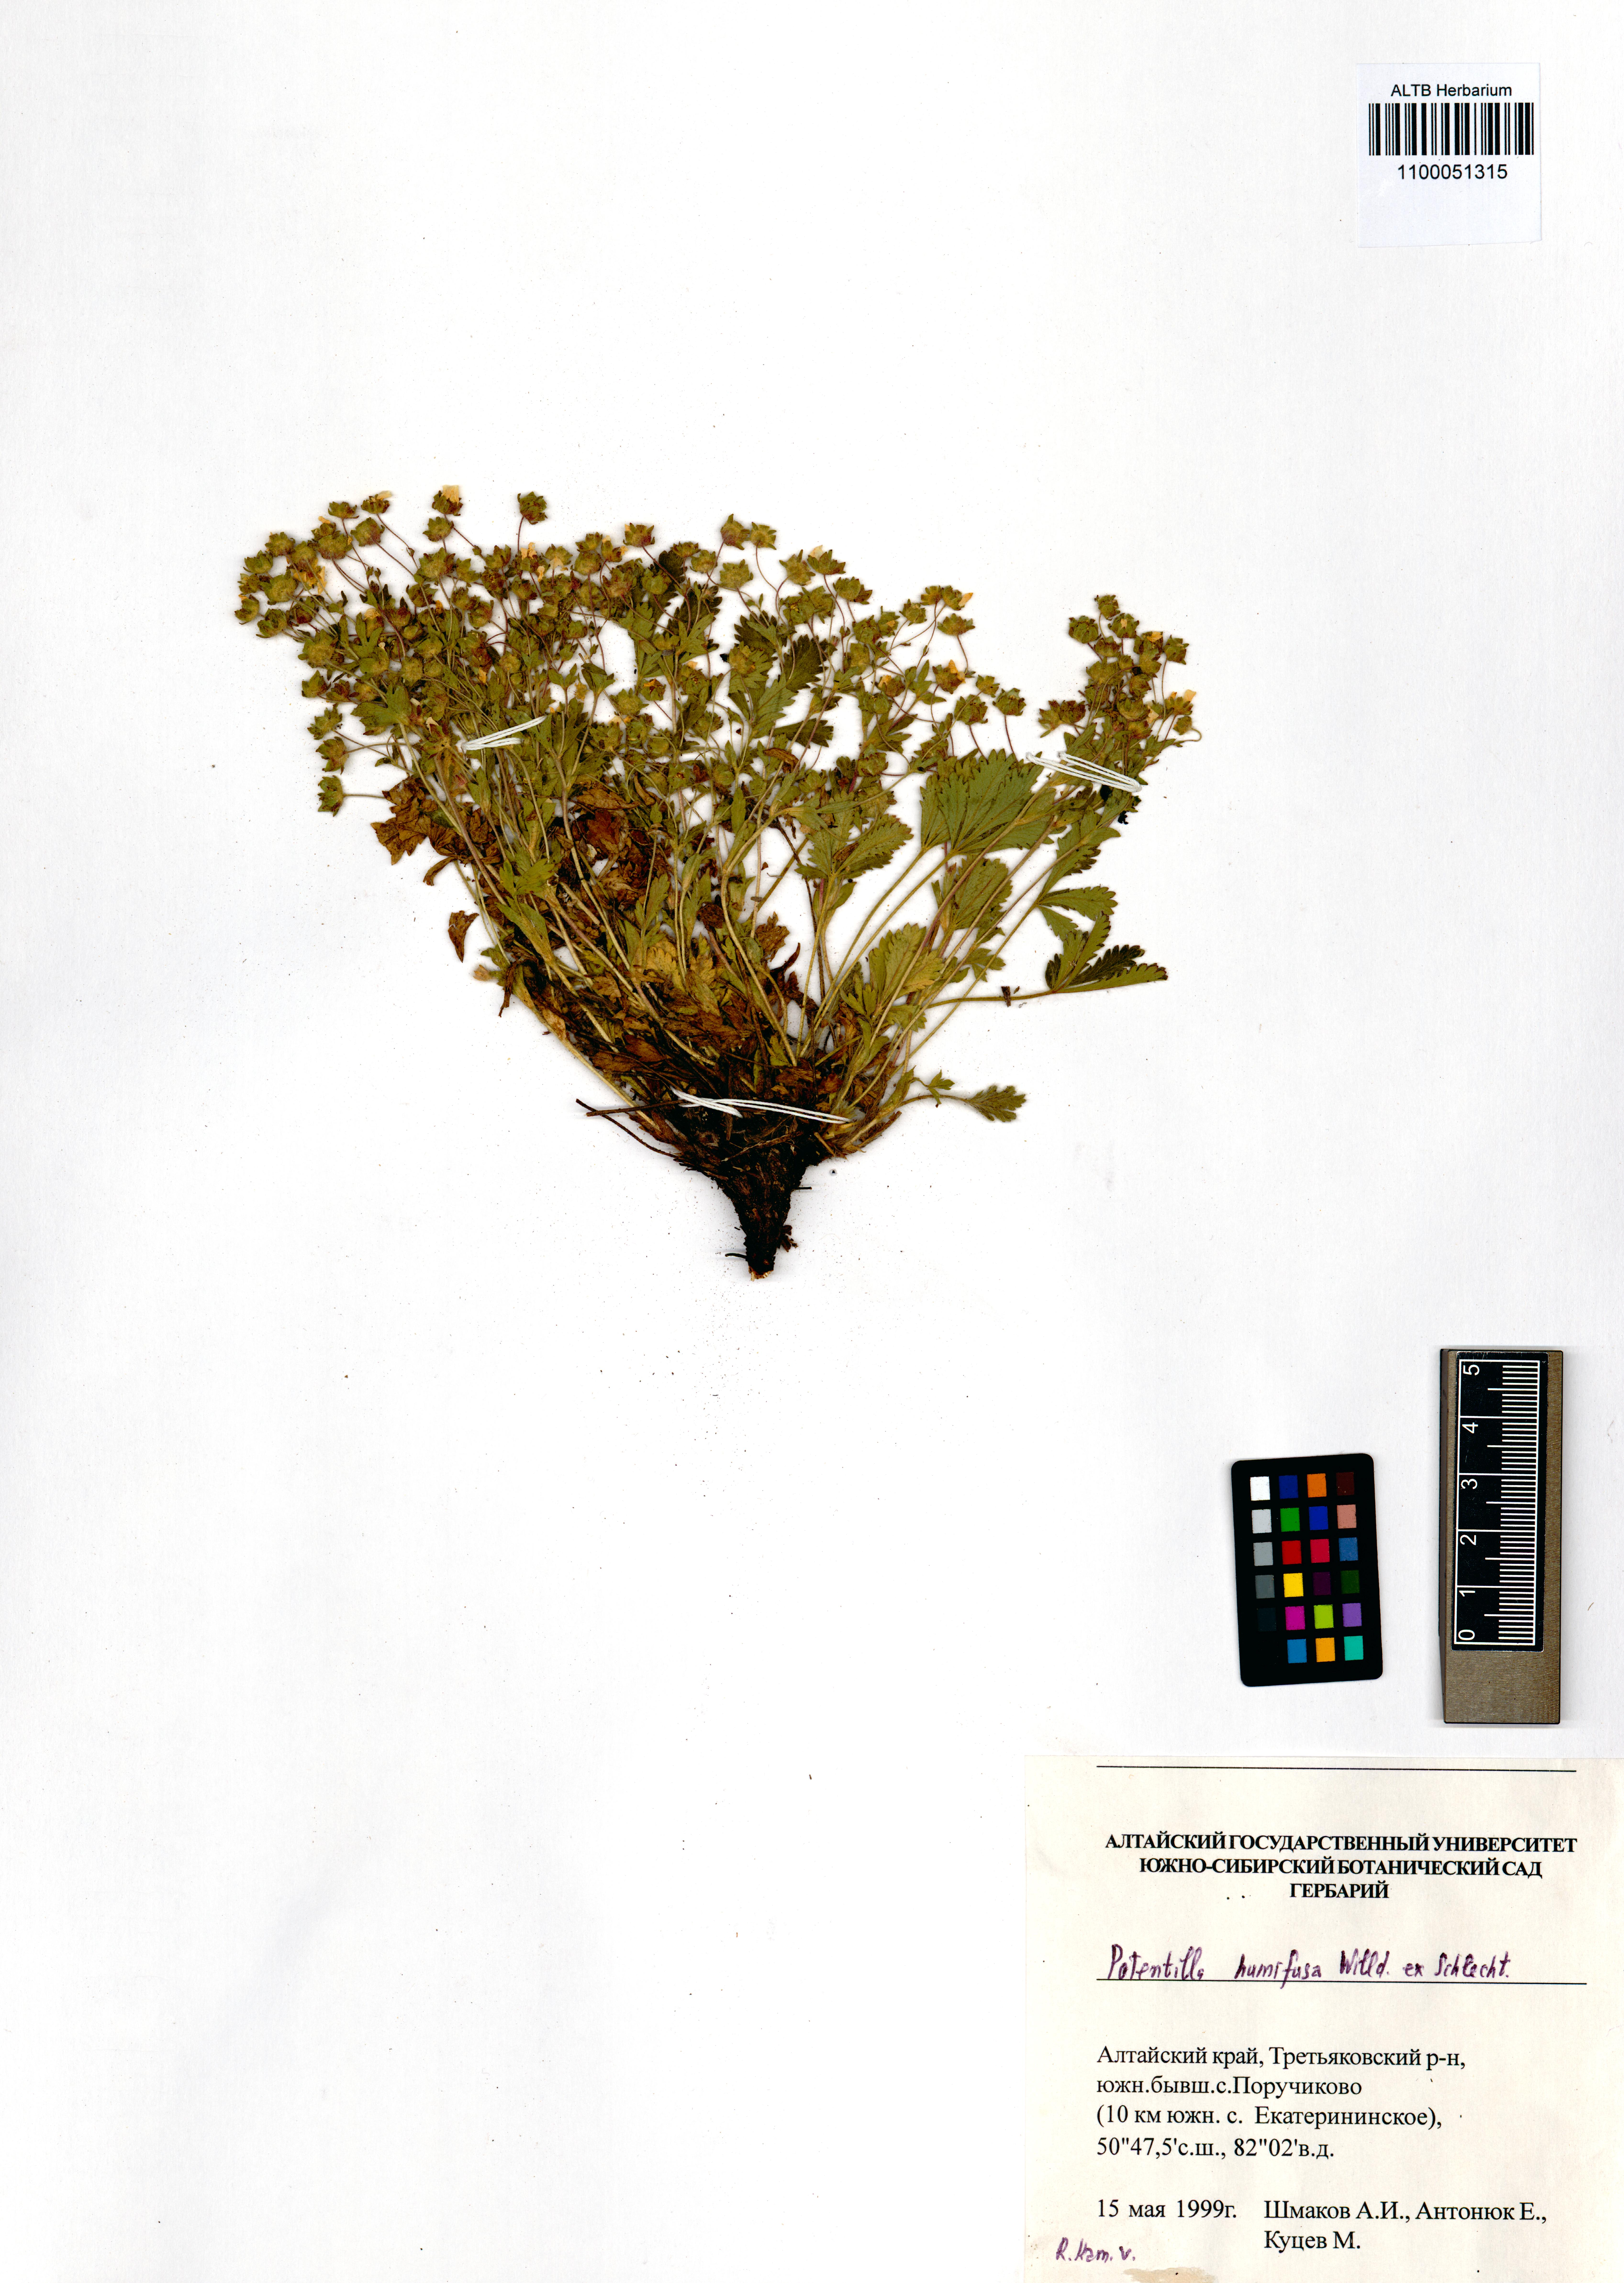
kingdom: Plantae
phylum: Tracheophyta
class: Magnoliopsida
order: Rosales
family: Rosaceae
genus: Potentilla
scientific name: Potentilla humifusa
